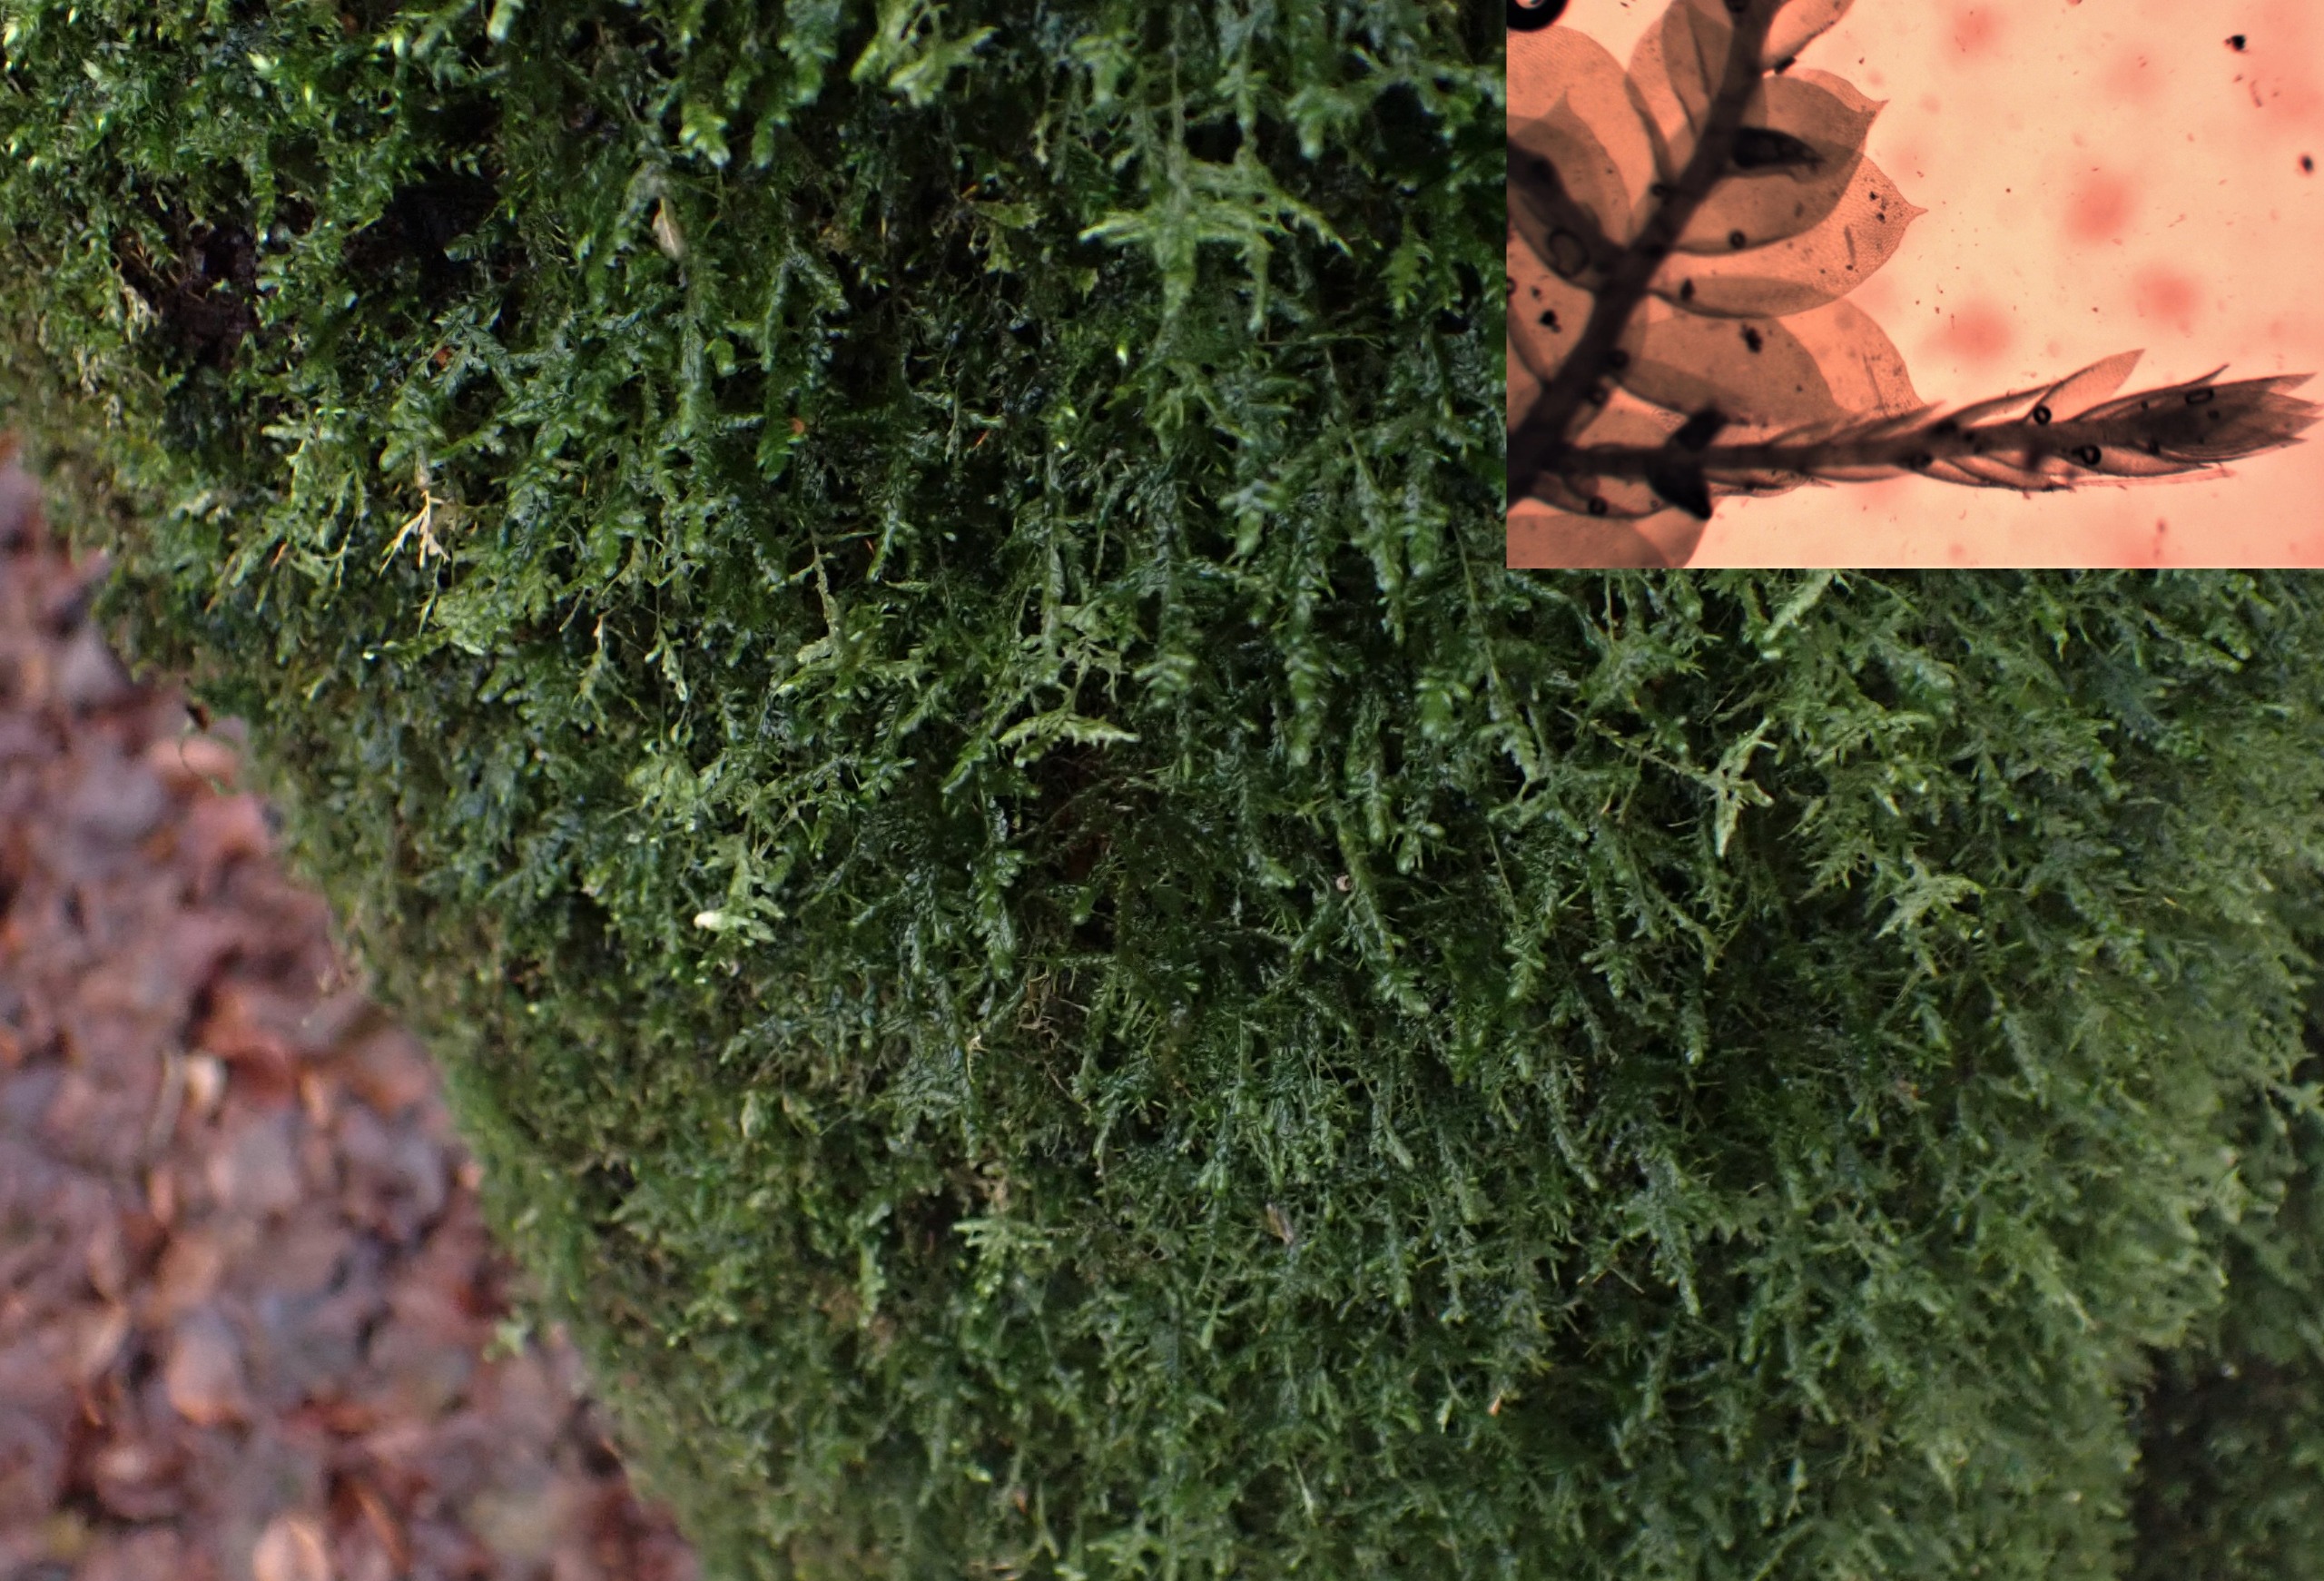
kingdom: Plantae
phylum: Bryophyta
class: Bryopsida
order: Hypnales
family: Neckeraceae
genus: Alleniella
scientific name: Alleniella complanata
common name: Almindelig fladmos
